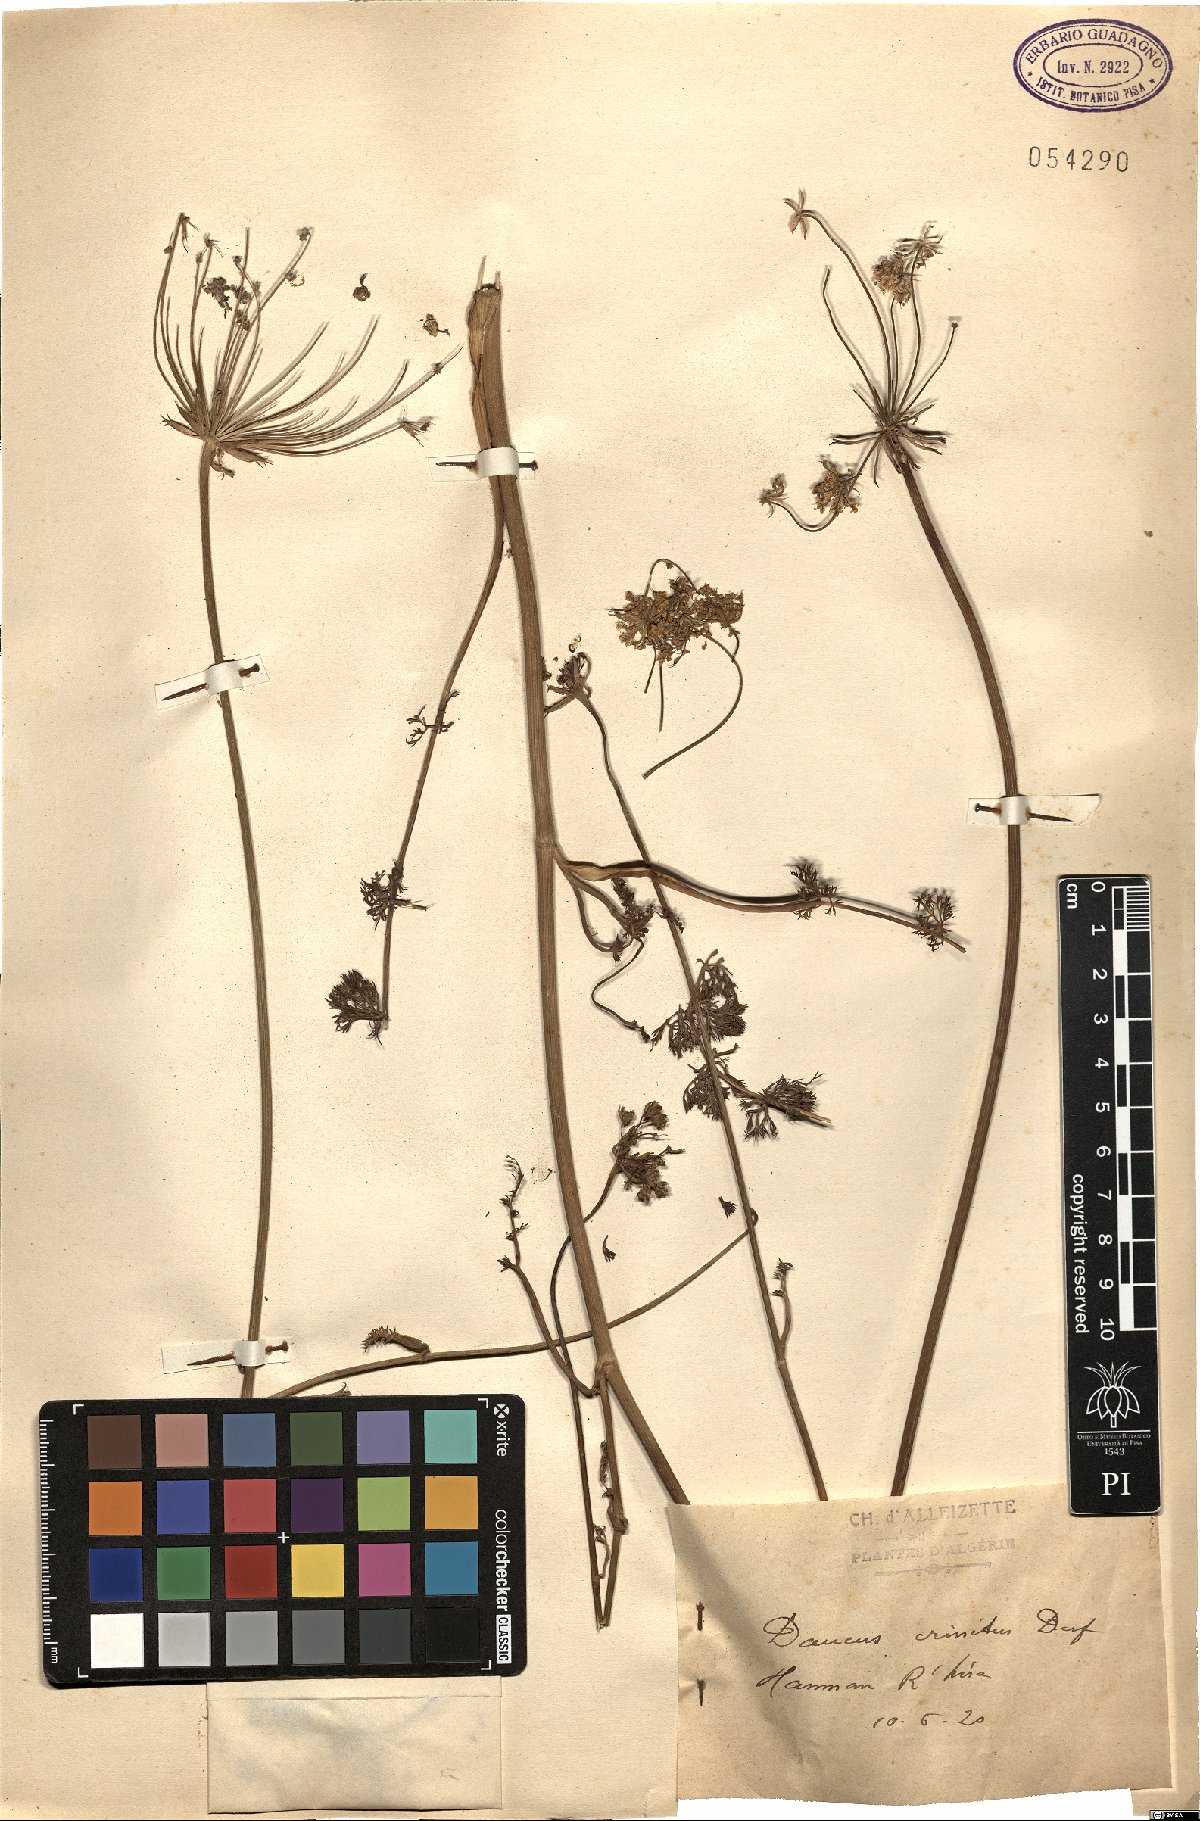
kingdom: Plantae
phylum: Tracheophyta
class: Magnoliopsida
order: Apiales
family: Apiaceae
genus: Daucus
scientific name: Daucus crinitus
